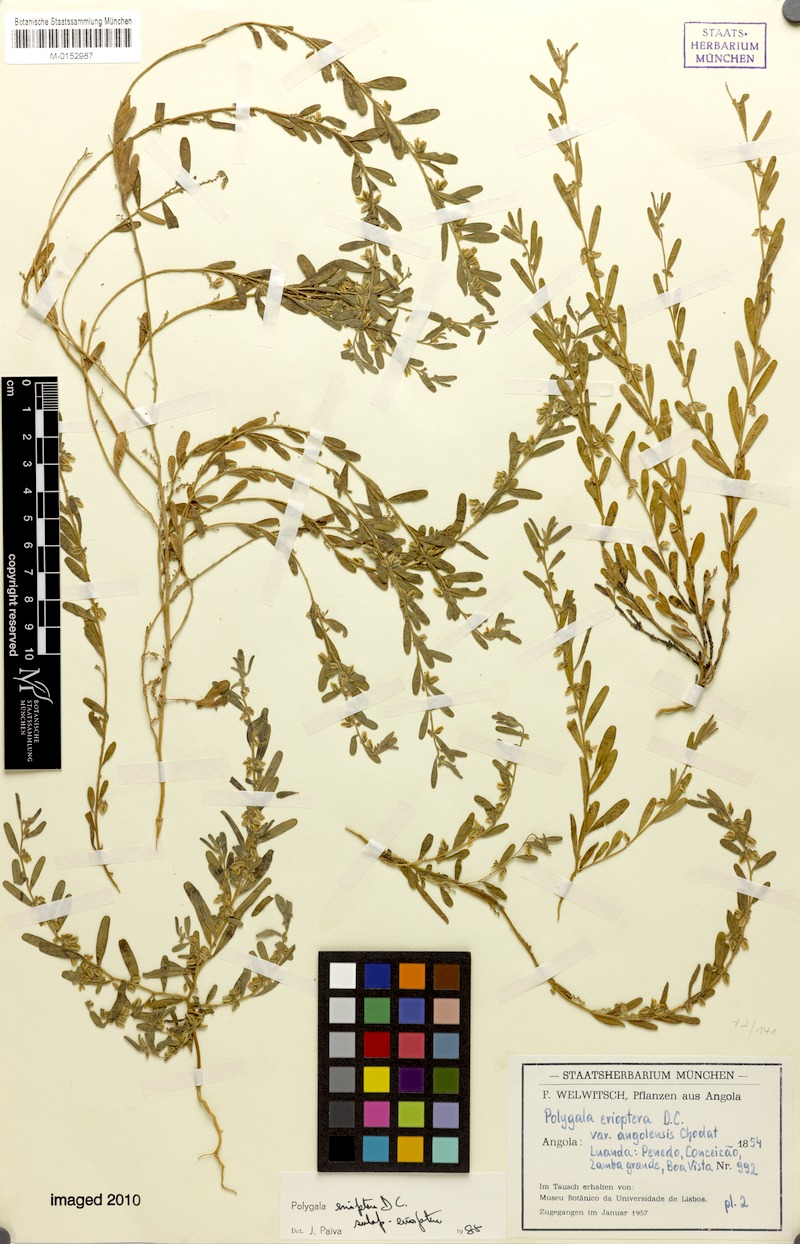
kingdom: Plantae
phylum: Tracheophyta
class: Magnoliopsida
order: Fabales
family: Polygalaceae
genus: Polygala
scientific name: Polygala erioptera
